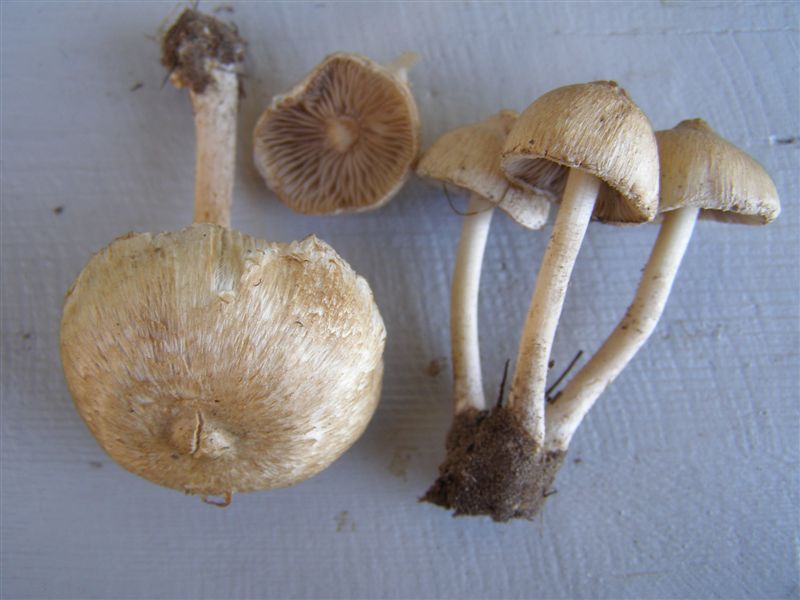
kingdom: Fungi
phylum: Basidiomycota
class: Agaricomycetes
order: Agaricales
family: Inocybaceae
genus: Inocybe
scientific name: Inocybe sindonia
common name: bleg trævlhat
